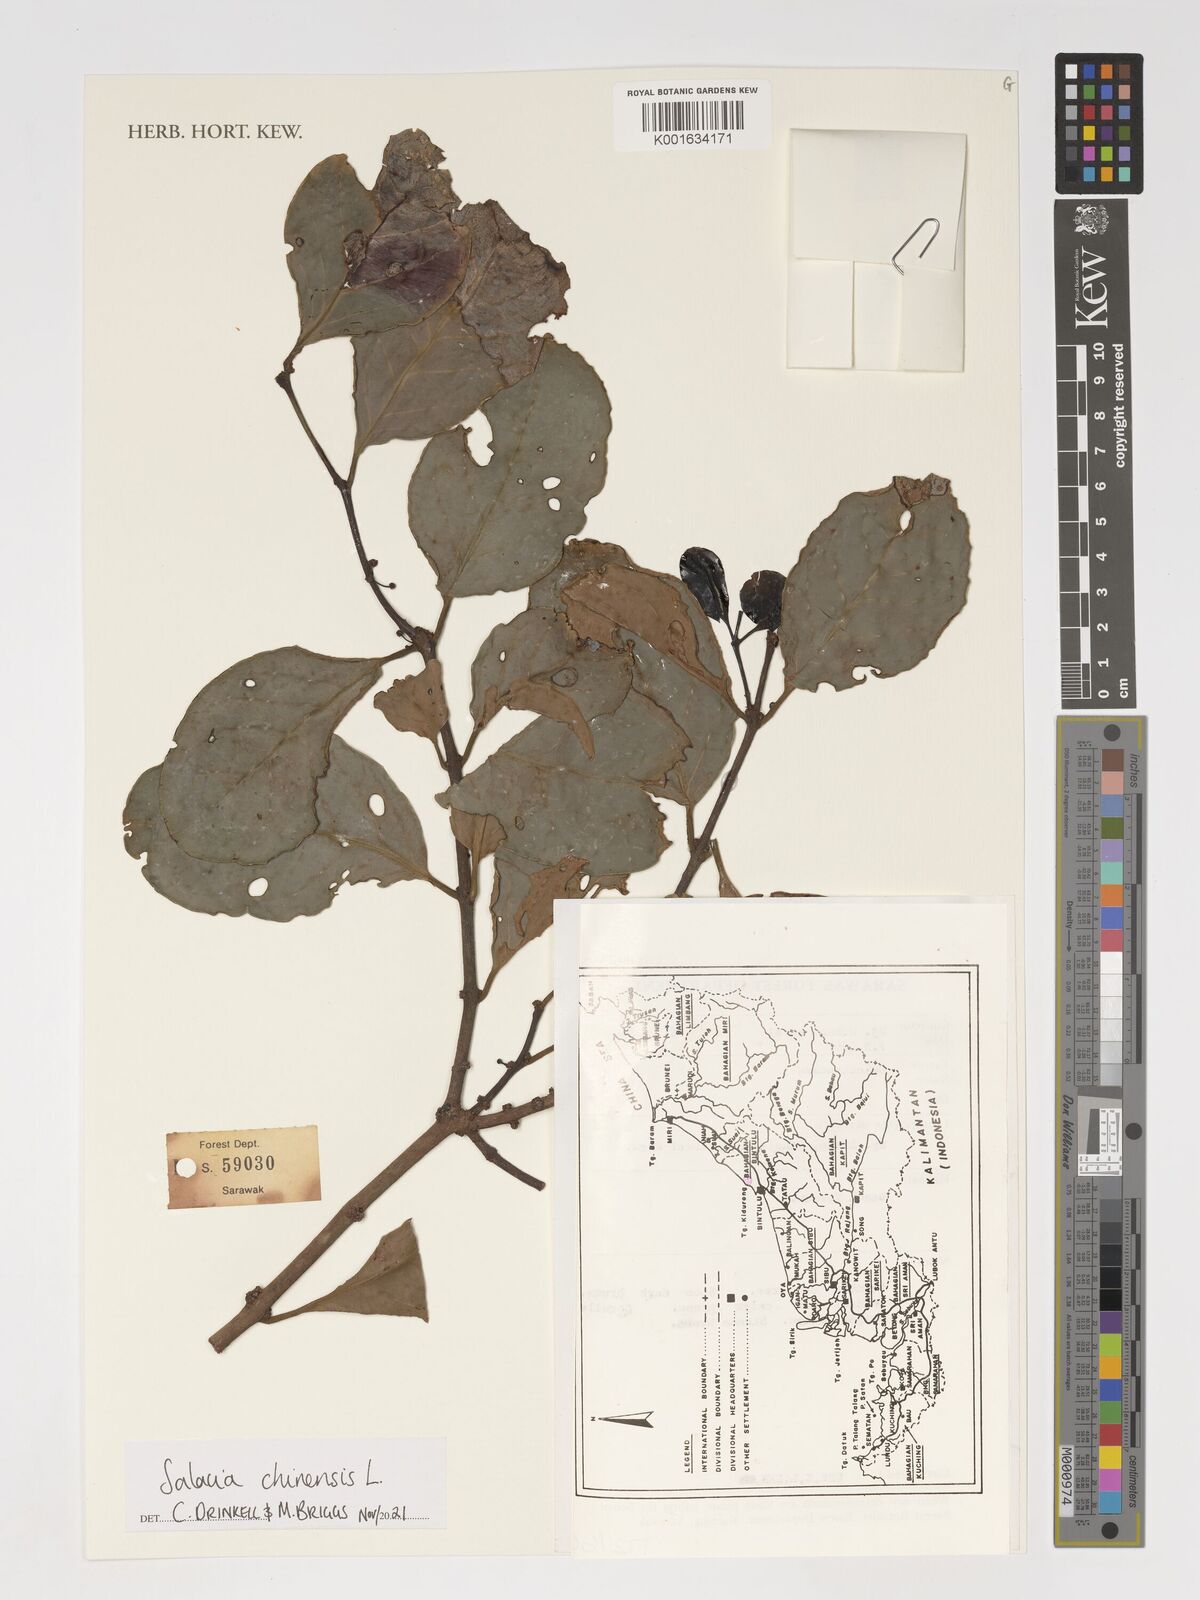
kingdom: Plantae
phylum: Tracheophyta
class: Magnoliopsida
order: Celastrales
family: Celastraceae
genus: Salacia
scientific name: Salacia chinensis
